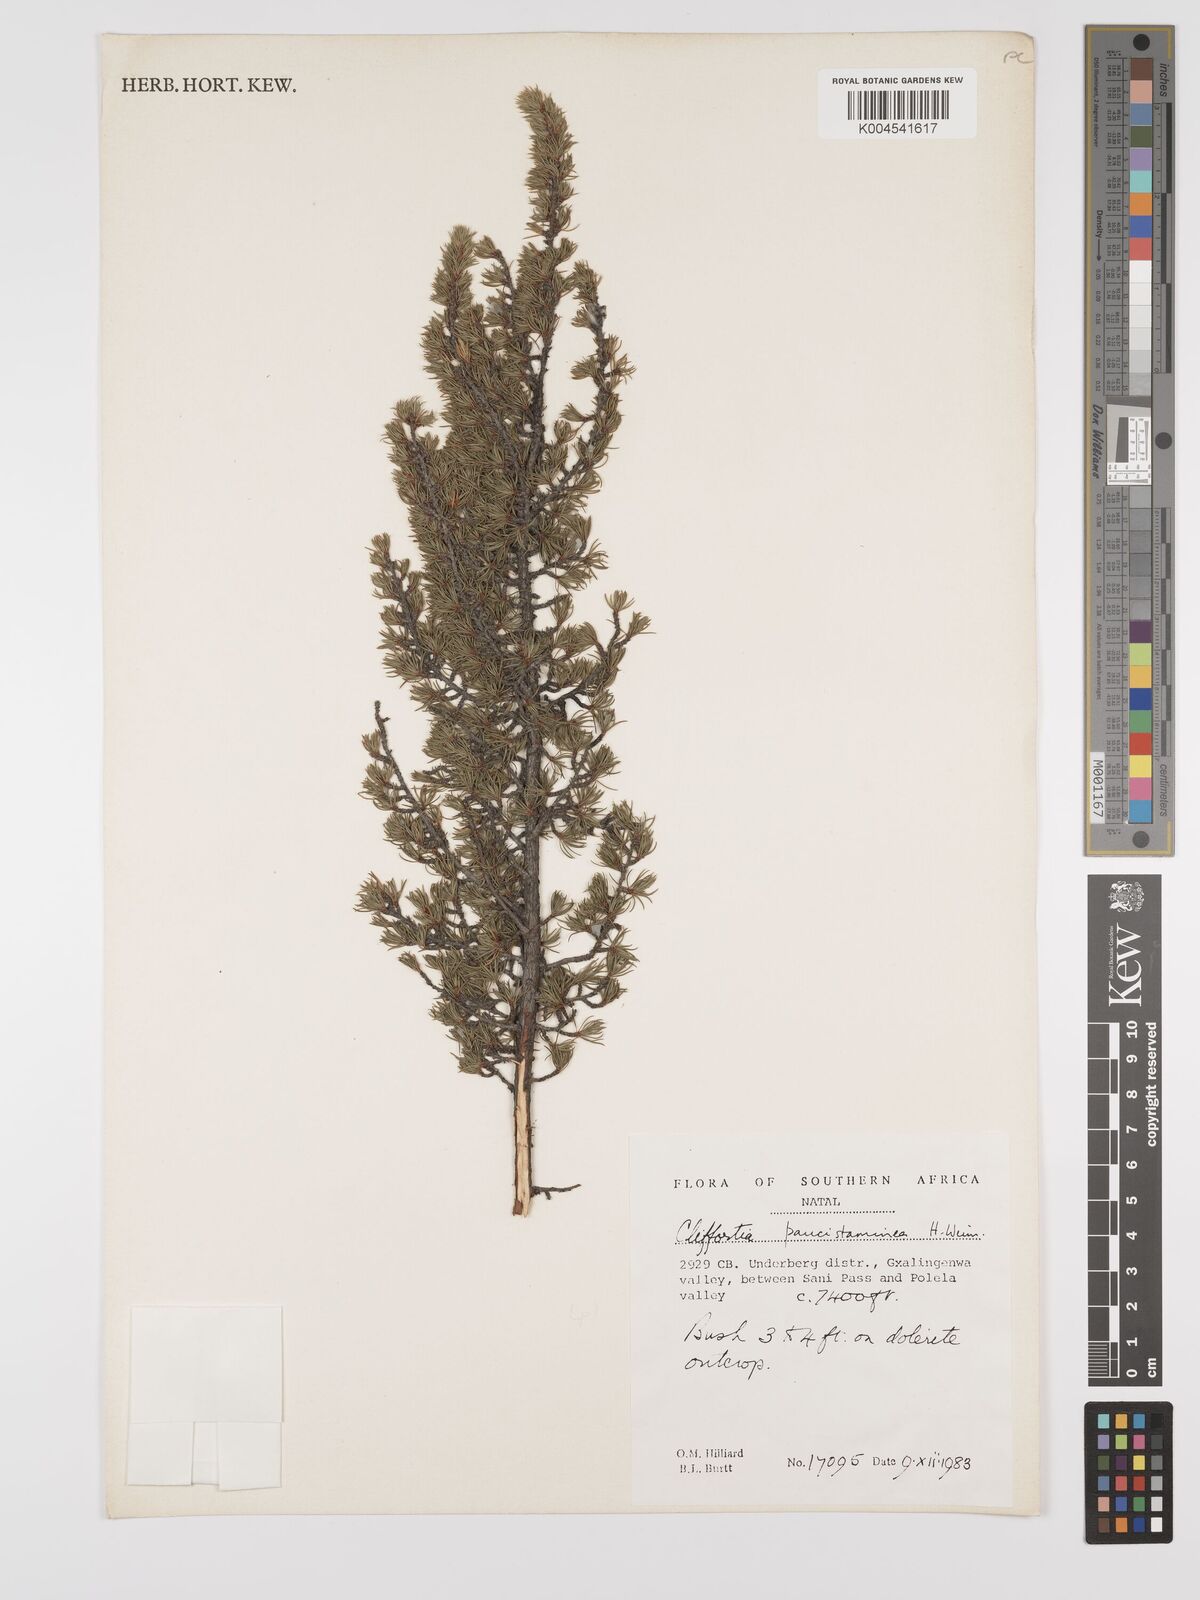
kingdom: Plantae
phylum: Tracheophyta
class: Magnoliopsida
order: Rosales
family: Rosaceae
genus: Cliffortia
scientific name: Cliffortia paucistaminea
